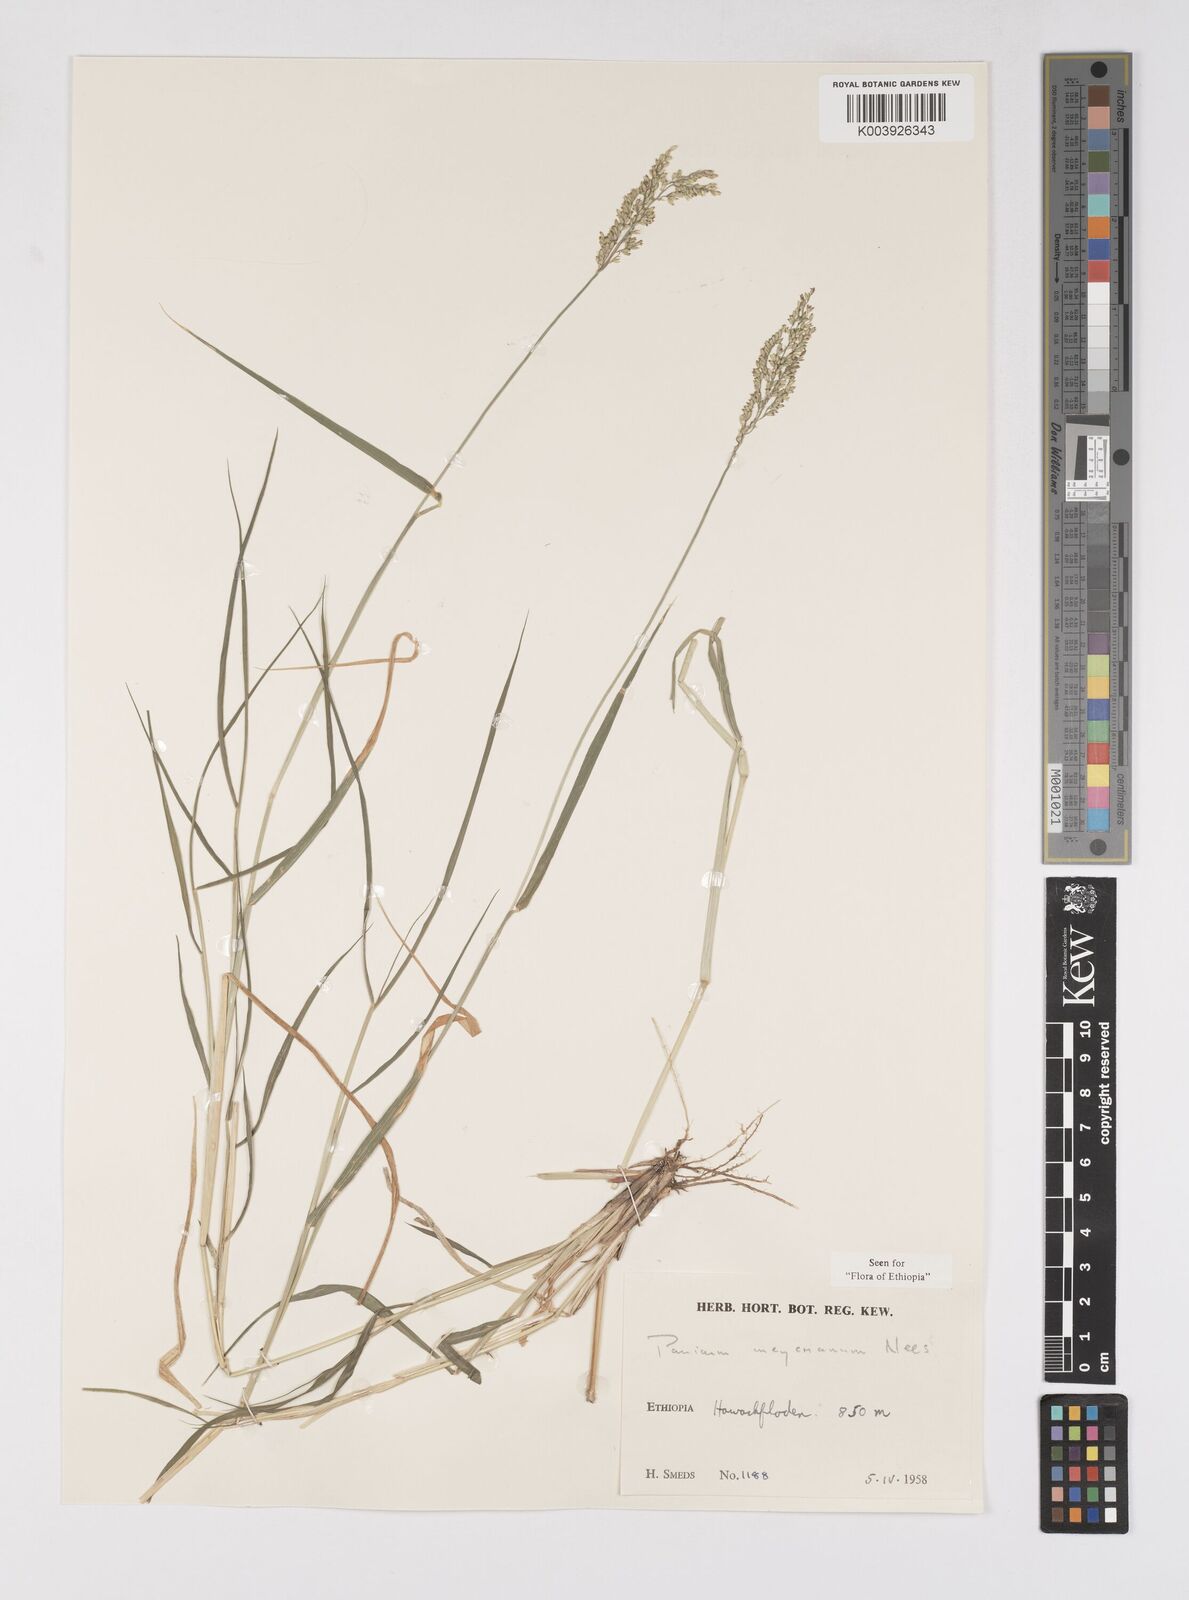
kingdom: Plantae
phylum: Tracheophyta
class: Liliopsida
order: Poales
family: Poaceae
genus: Eriochloa
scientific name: Eriochloa meyeriana
